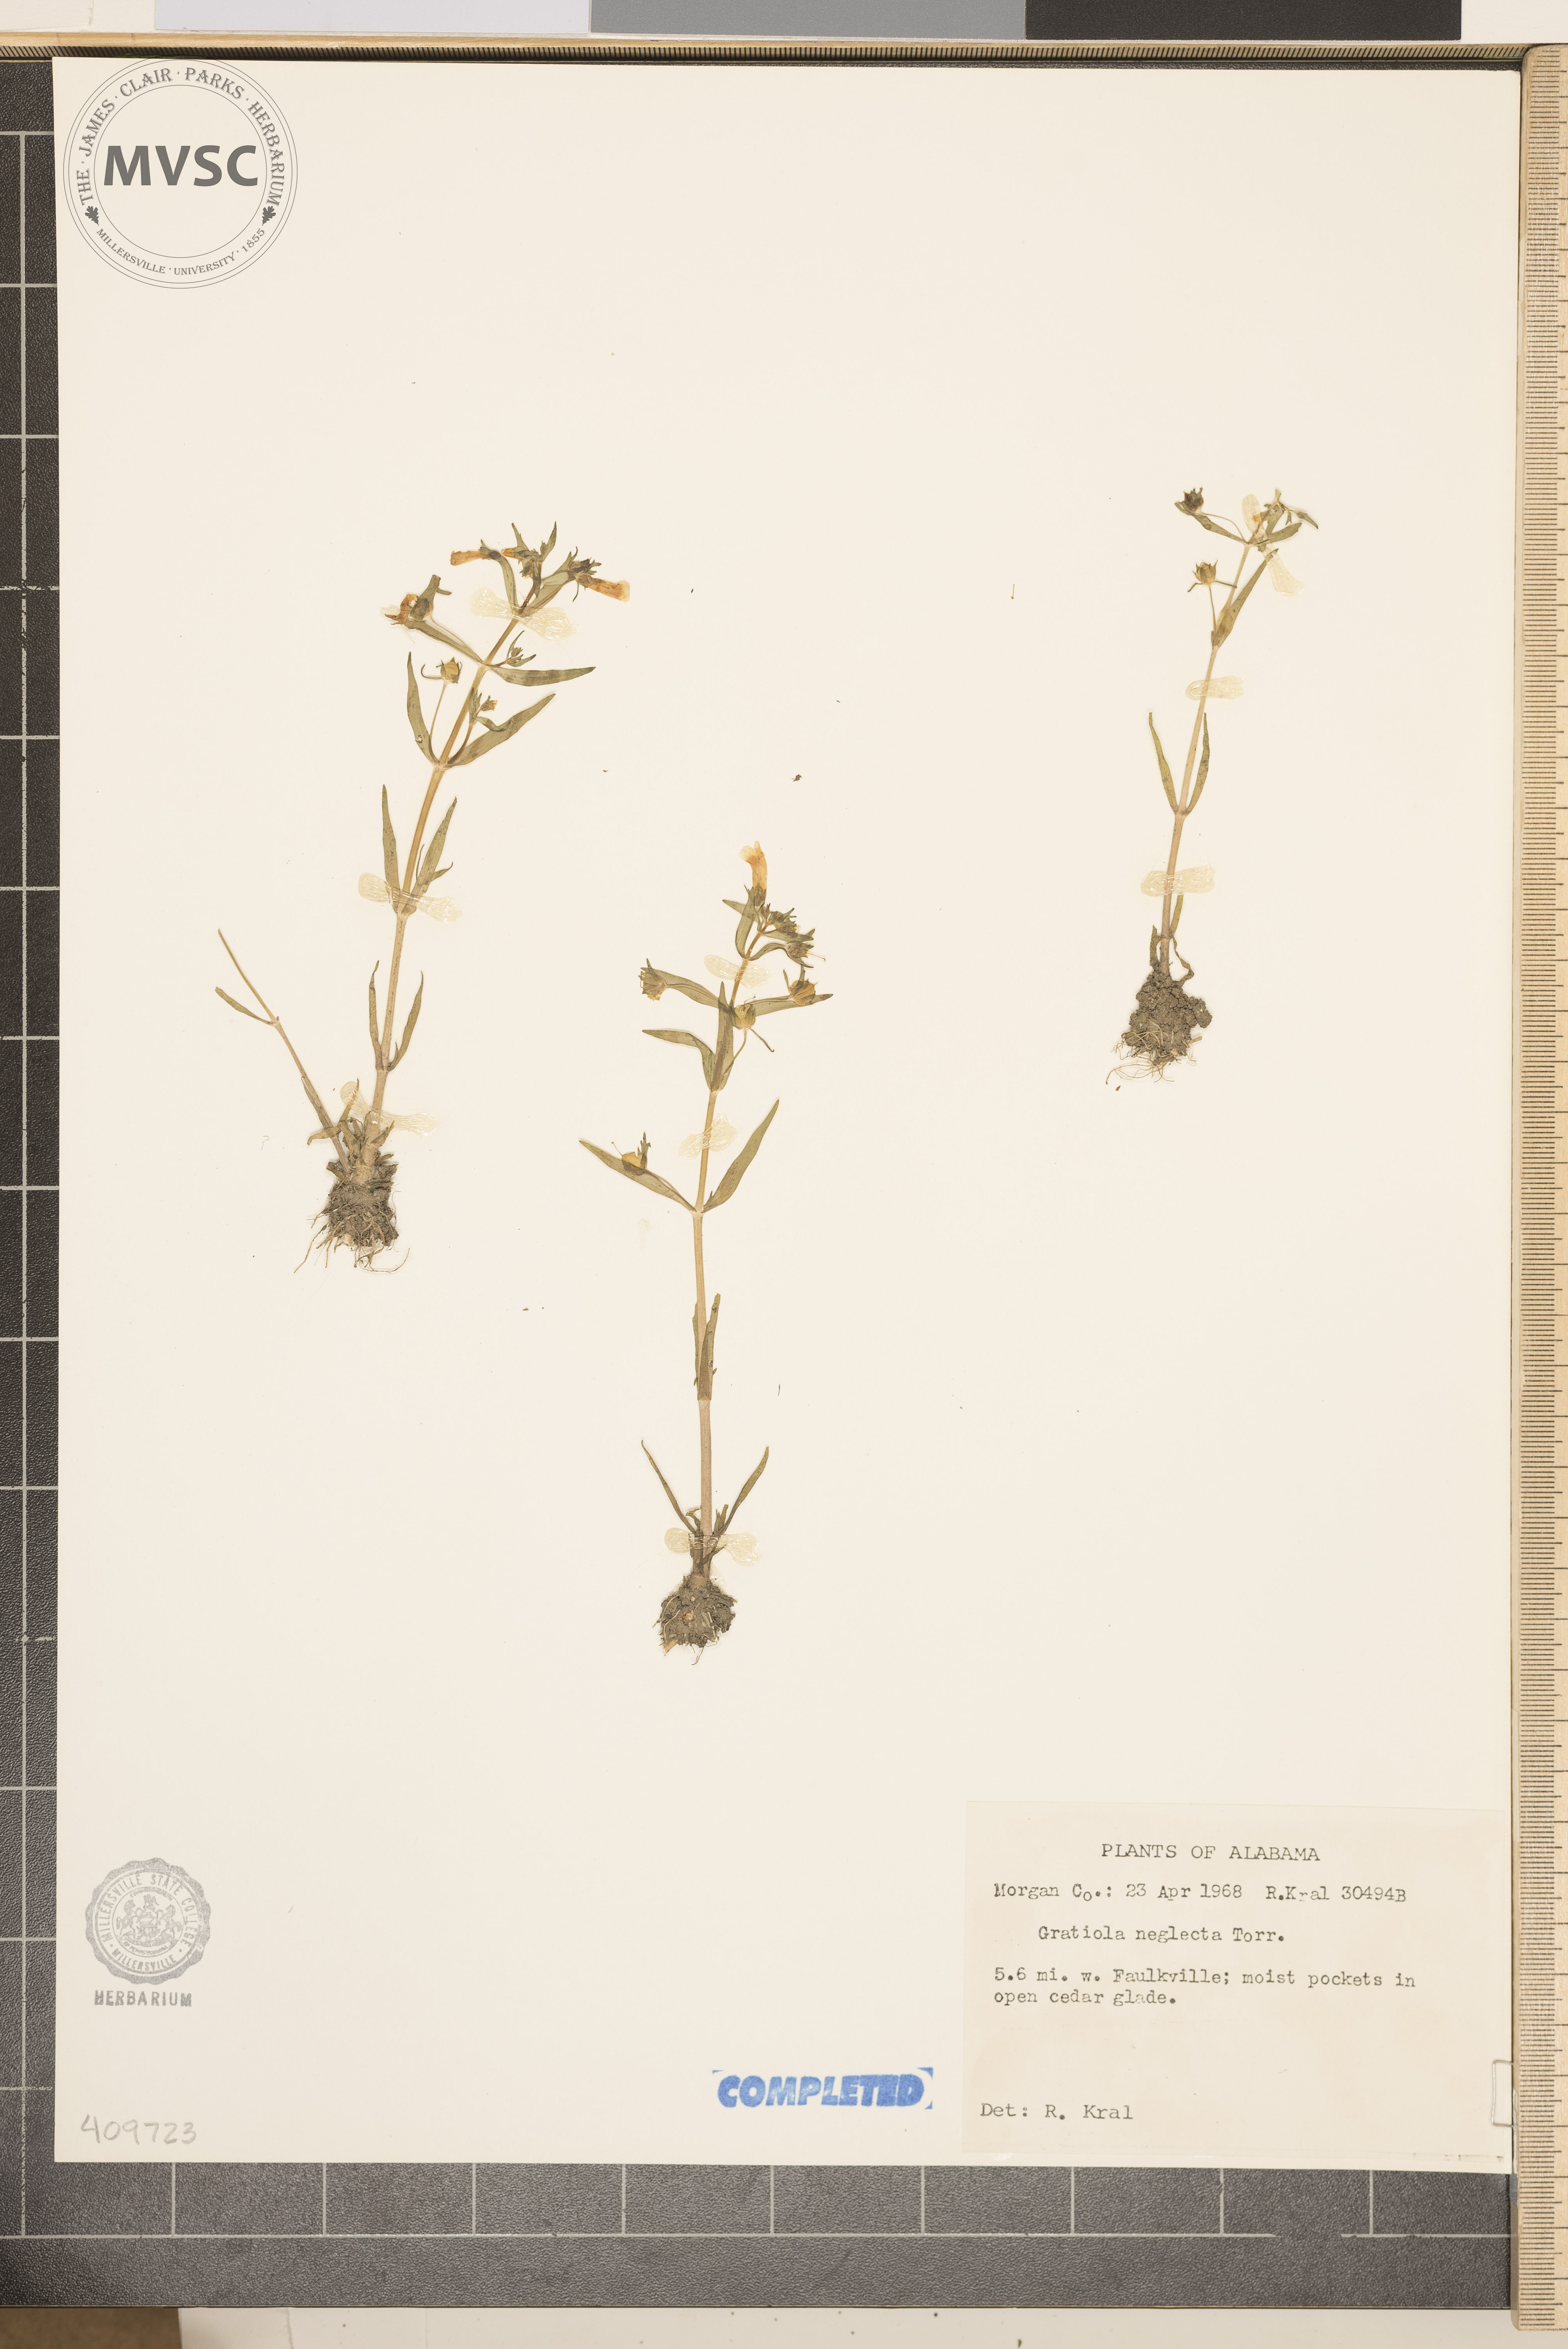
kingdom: Plantae
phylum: Tracheophyta
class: Magnoliopsida
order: Lamiales
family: Plantaginaceae
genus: Gratiola
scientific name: Gratiola neglecta
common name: American hedge-hyssop
